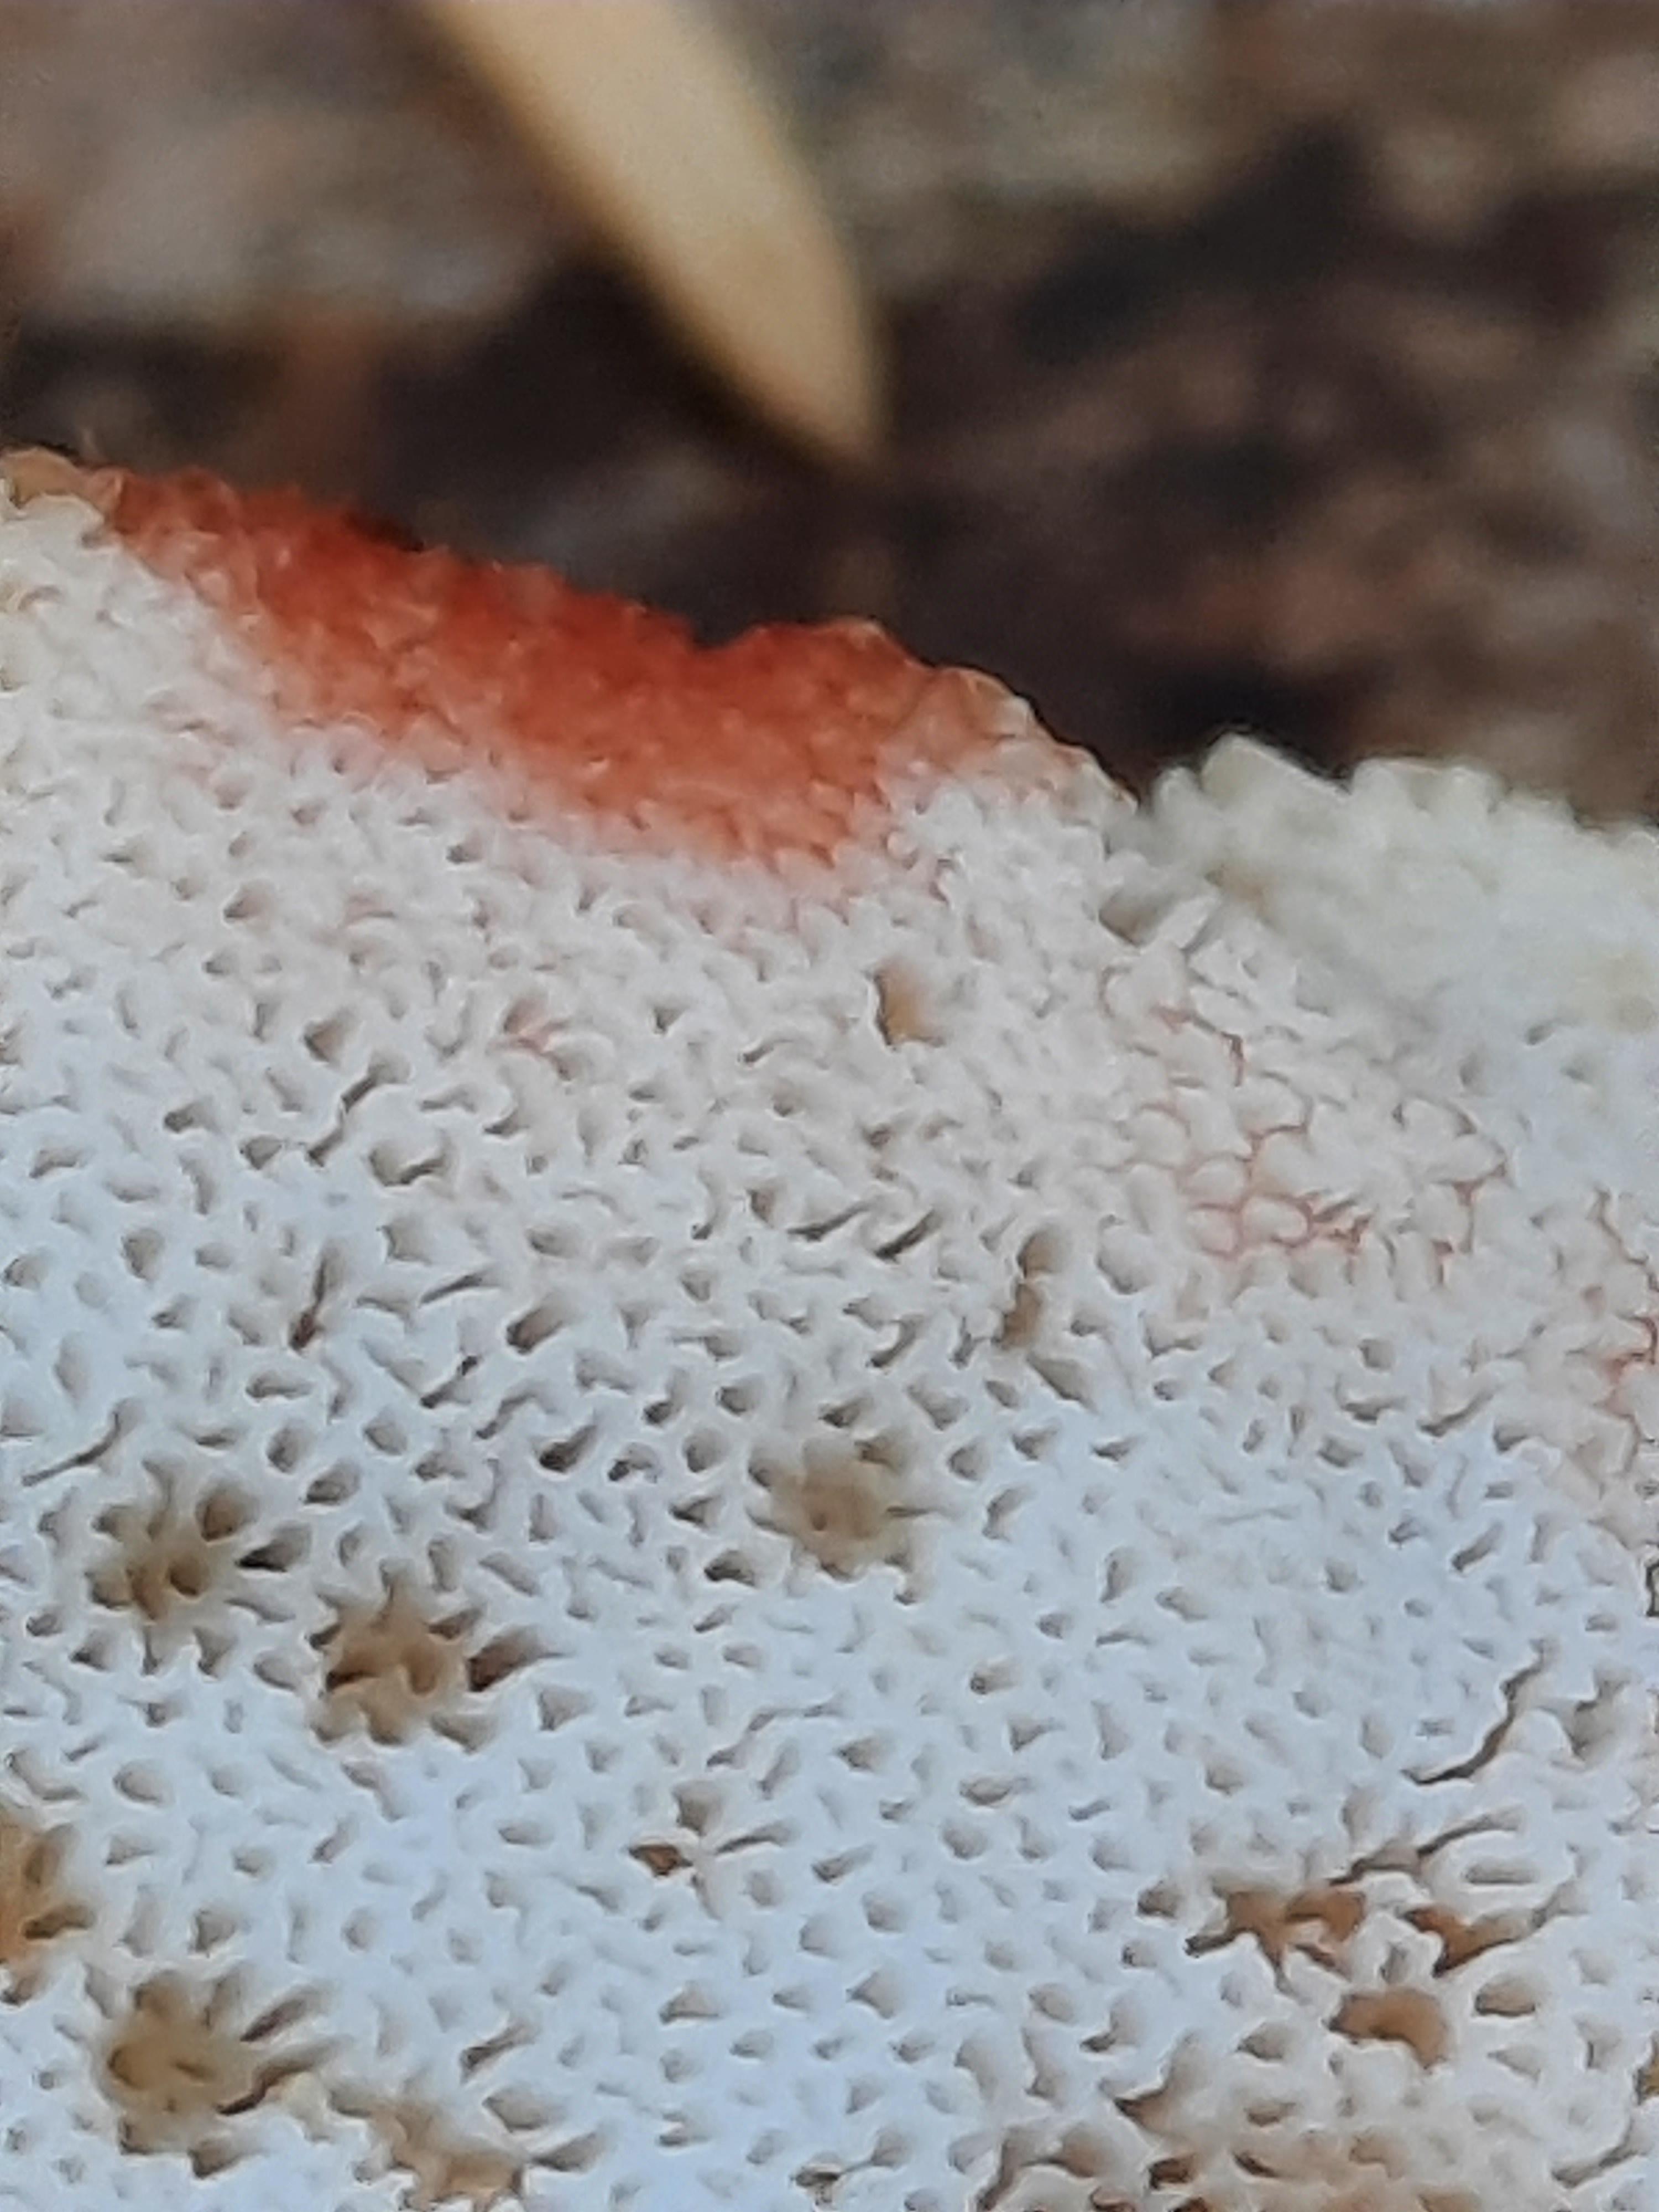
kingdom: Fungi
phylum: Basidiomycota
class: Agaricomycetes
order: Polyporales
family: Meripilaceae
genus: Rigidoporus
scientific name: Rigidoporus sanguinolentus
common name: blod-skorpeporesvamp
